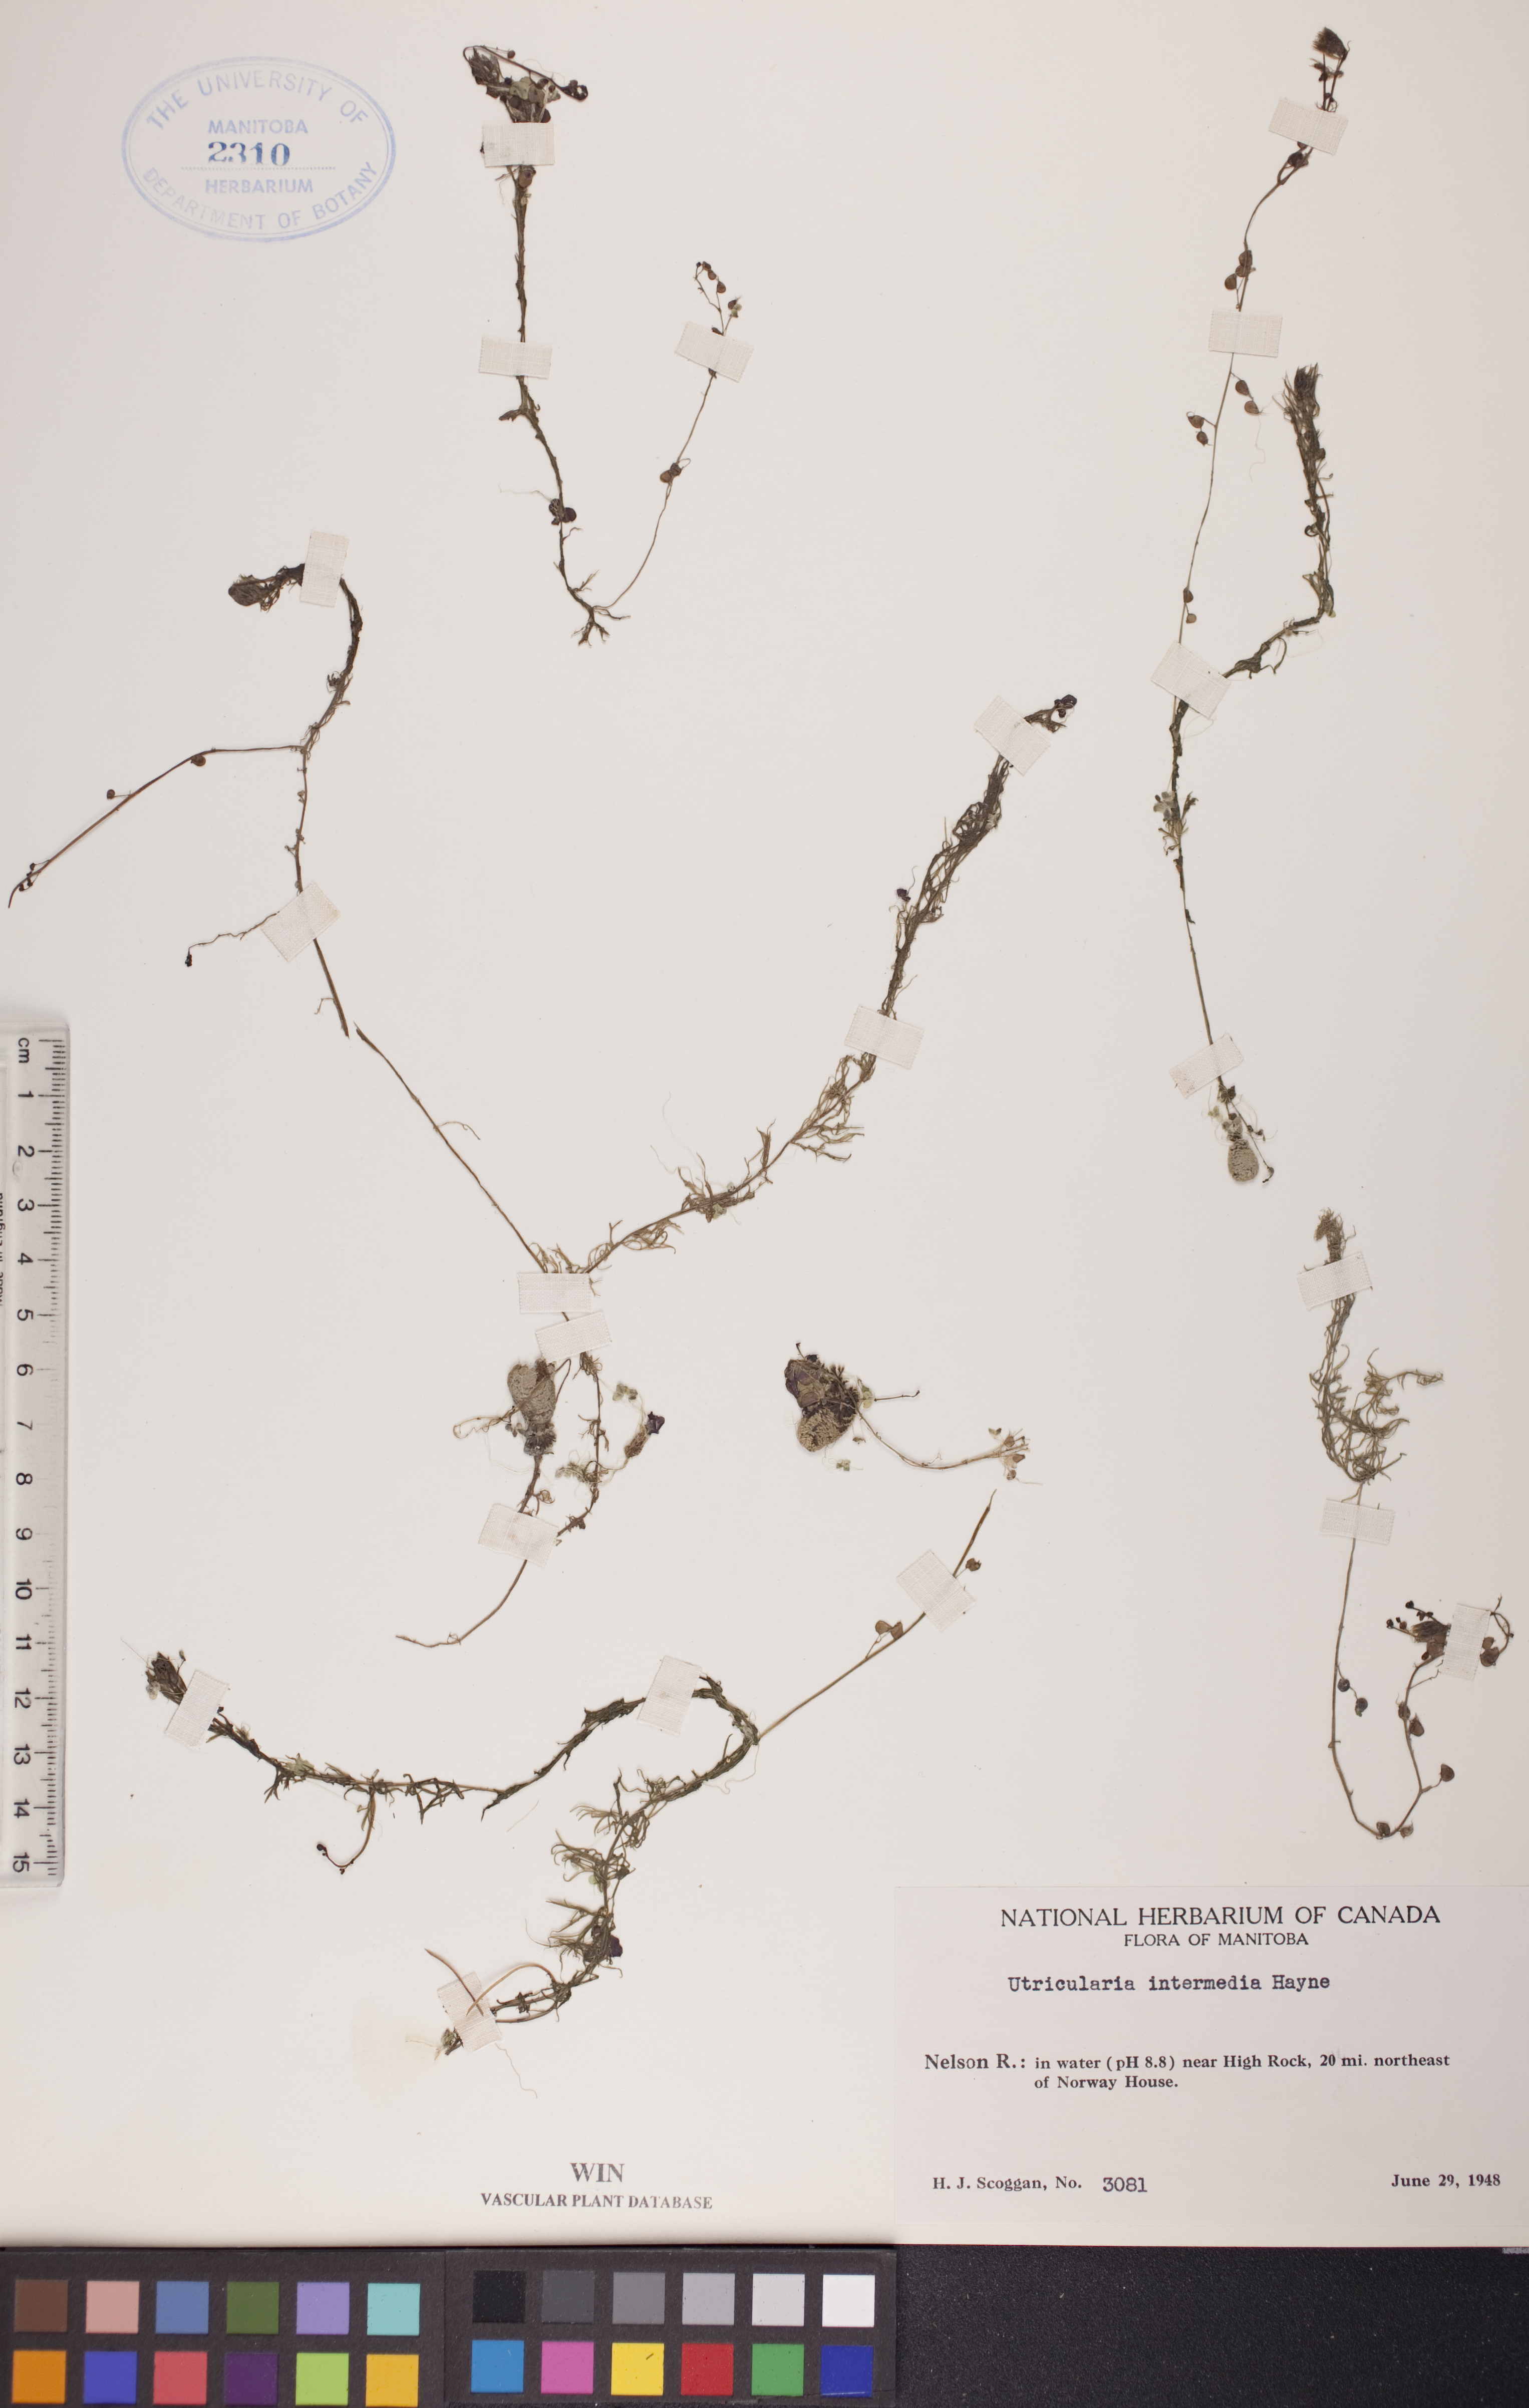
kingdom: Plantae
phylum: Tracheophyta
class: Magnoliopsida
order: Lamiales
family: Lentibulariaceae
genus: Utricularia
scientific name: Utricularia intermedia
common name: Intermediate bladderwort
